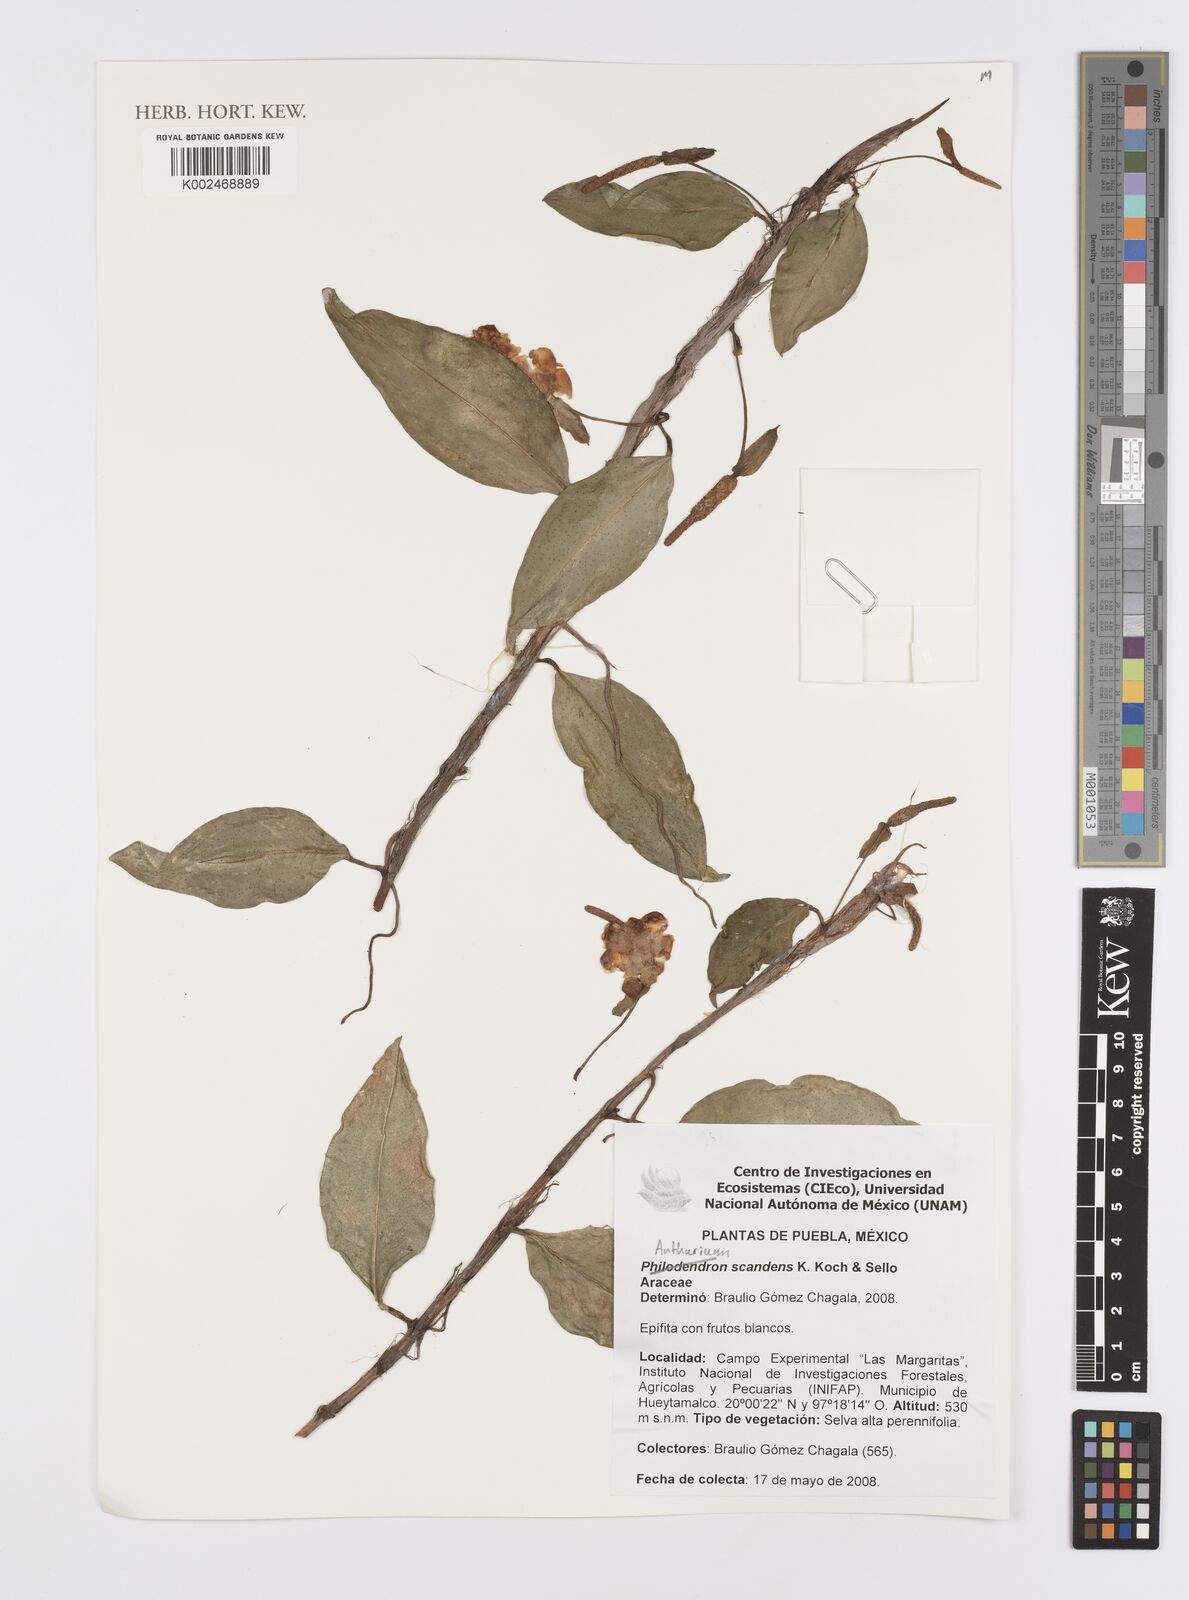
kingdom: Plantae
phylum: Tracheophyta
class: Liliopsida
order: Alismatales
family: Araceae
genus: Anthurium
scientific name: Anthurium scandens
